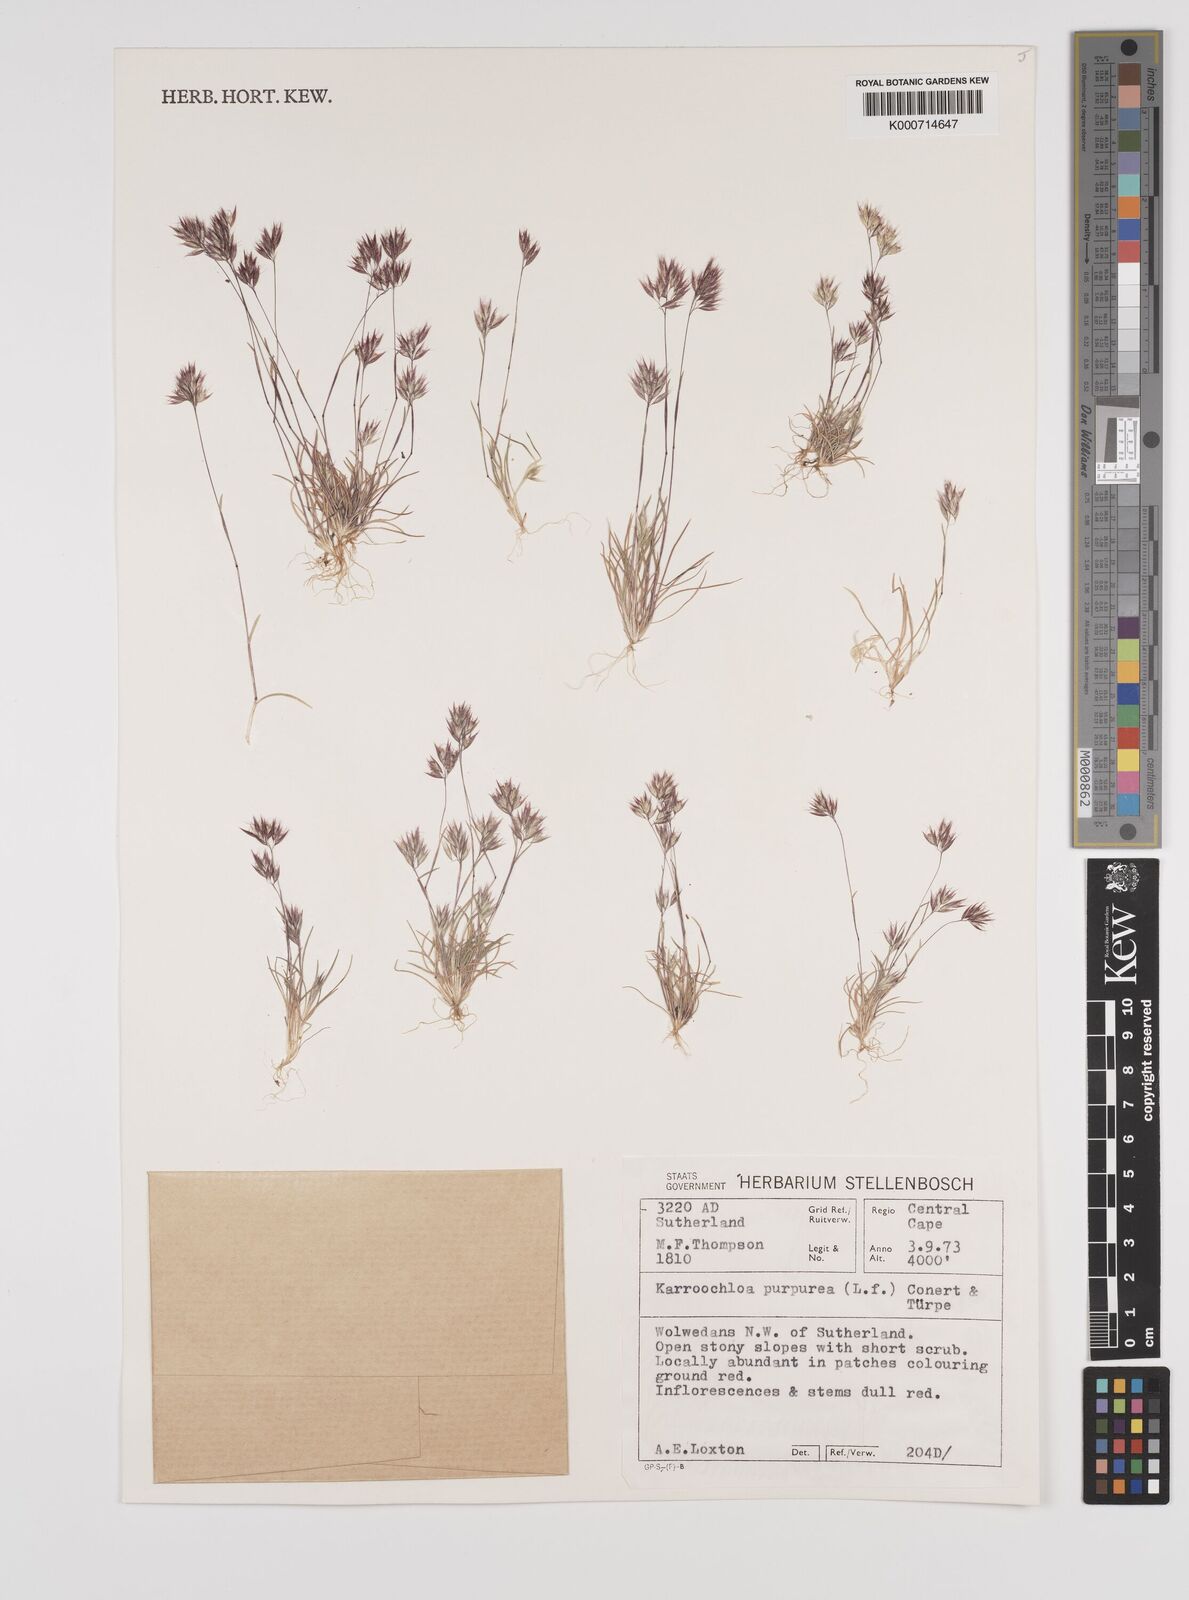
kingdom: Plantae
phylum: Tracheophyta
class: Liliopsida
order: Poales
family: Poaceae
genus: Rytidosperma
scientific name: Rytidosperma
